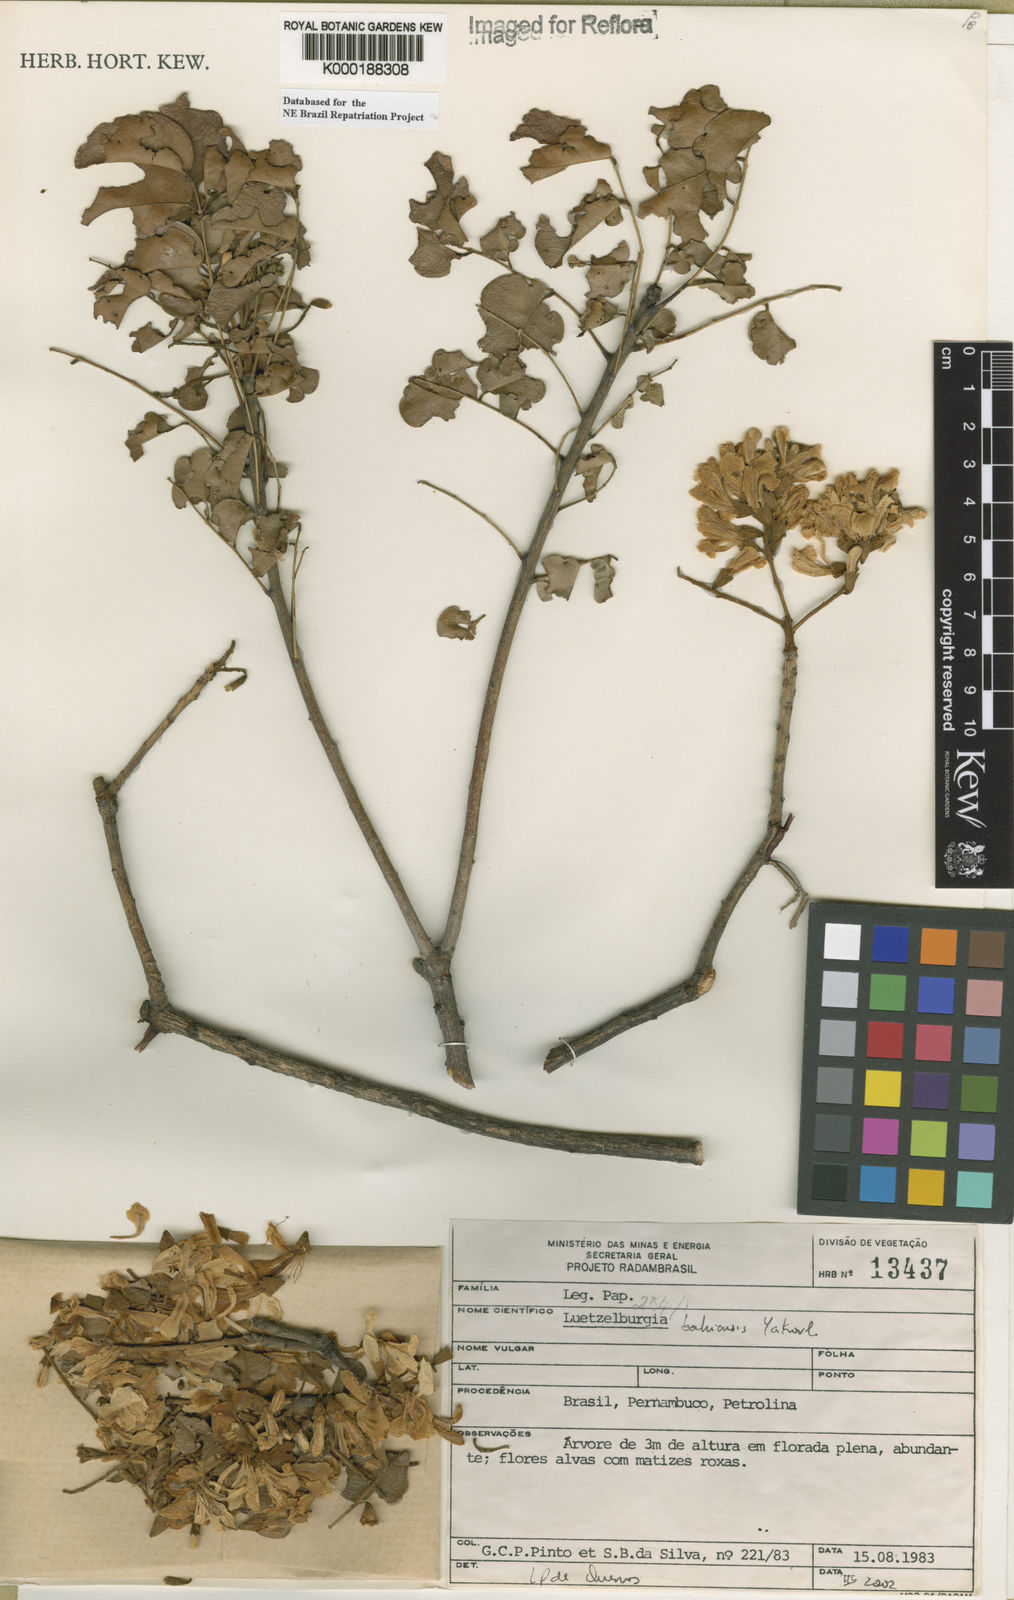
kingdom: Plantae
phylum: Tracheophyta
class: Magnoliopsida
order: Fabales
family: Fabaceae
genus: Luetzelburgia
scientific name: Luetzelburgia bahiensis
